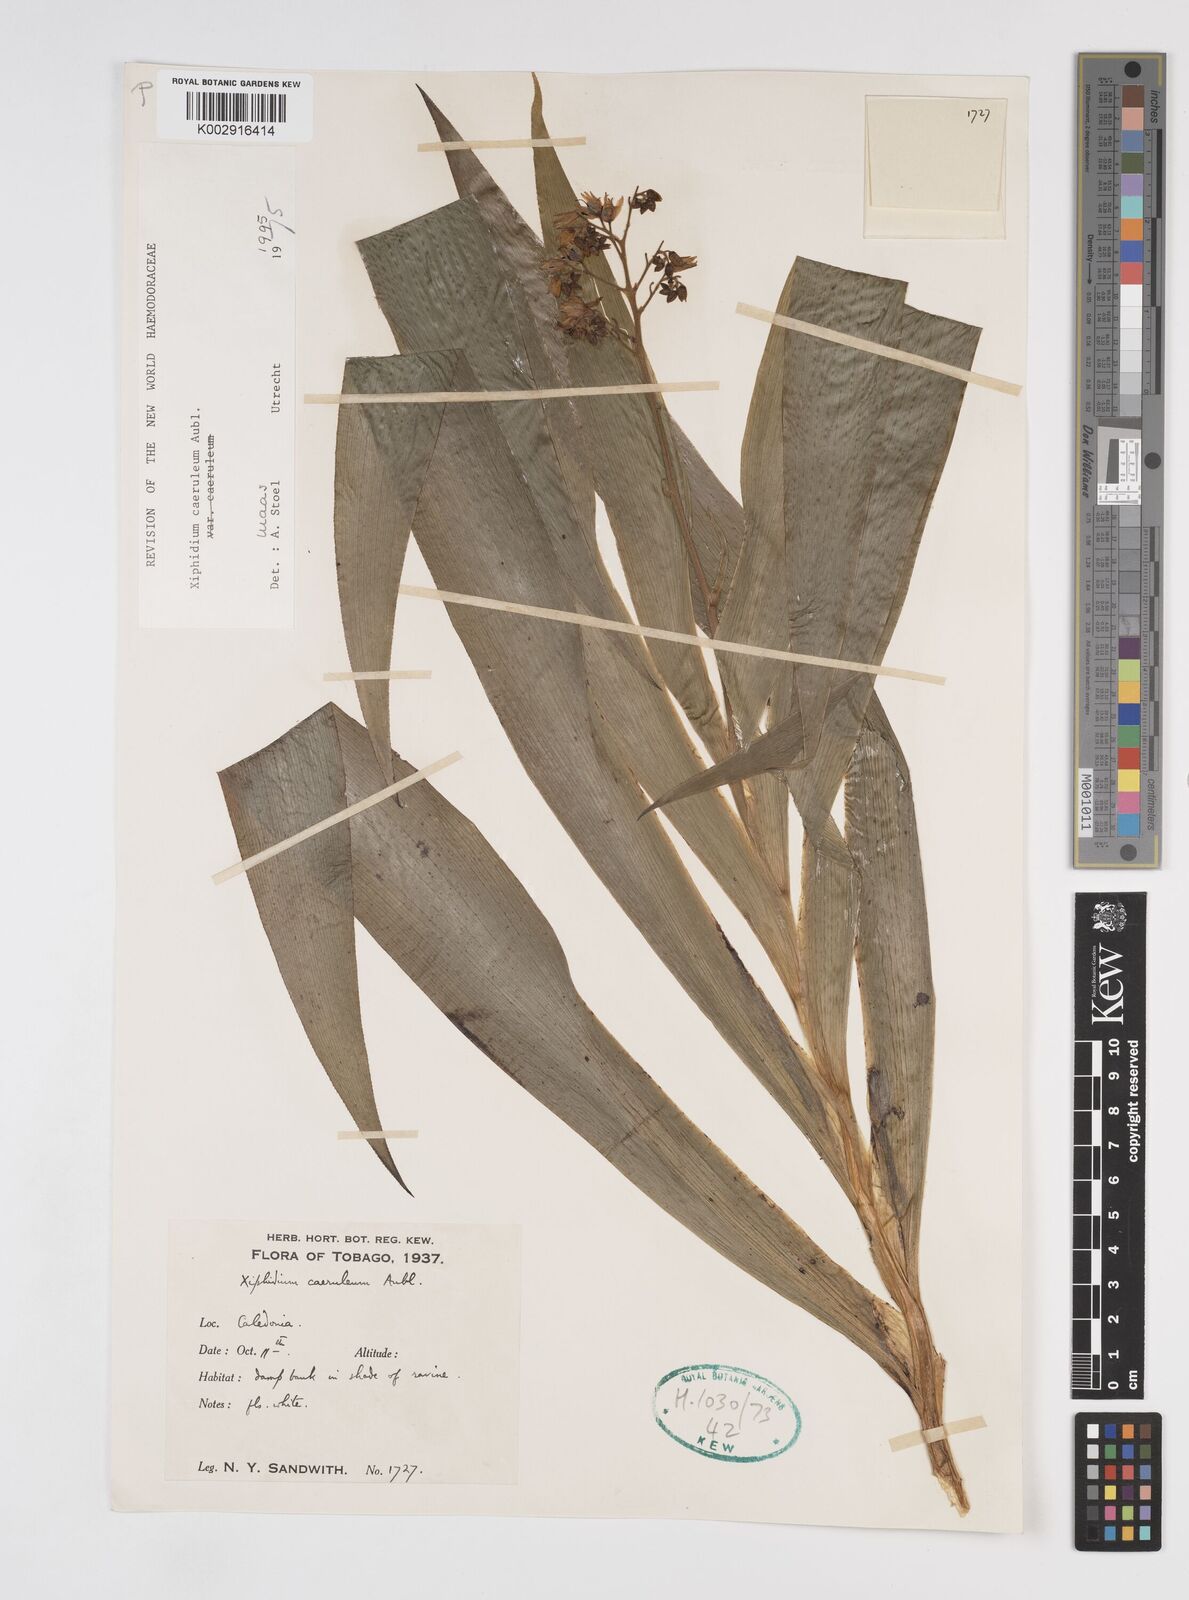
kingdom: Plantae
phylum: Tracheophyta
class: Liliopsida
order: Commelinales
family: Haemodoraceae
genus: Xiphidium
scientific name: Xiphidium caeruleum
